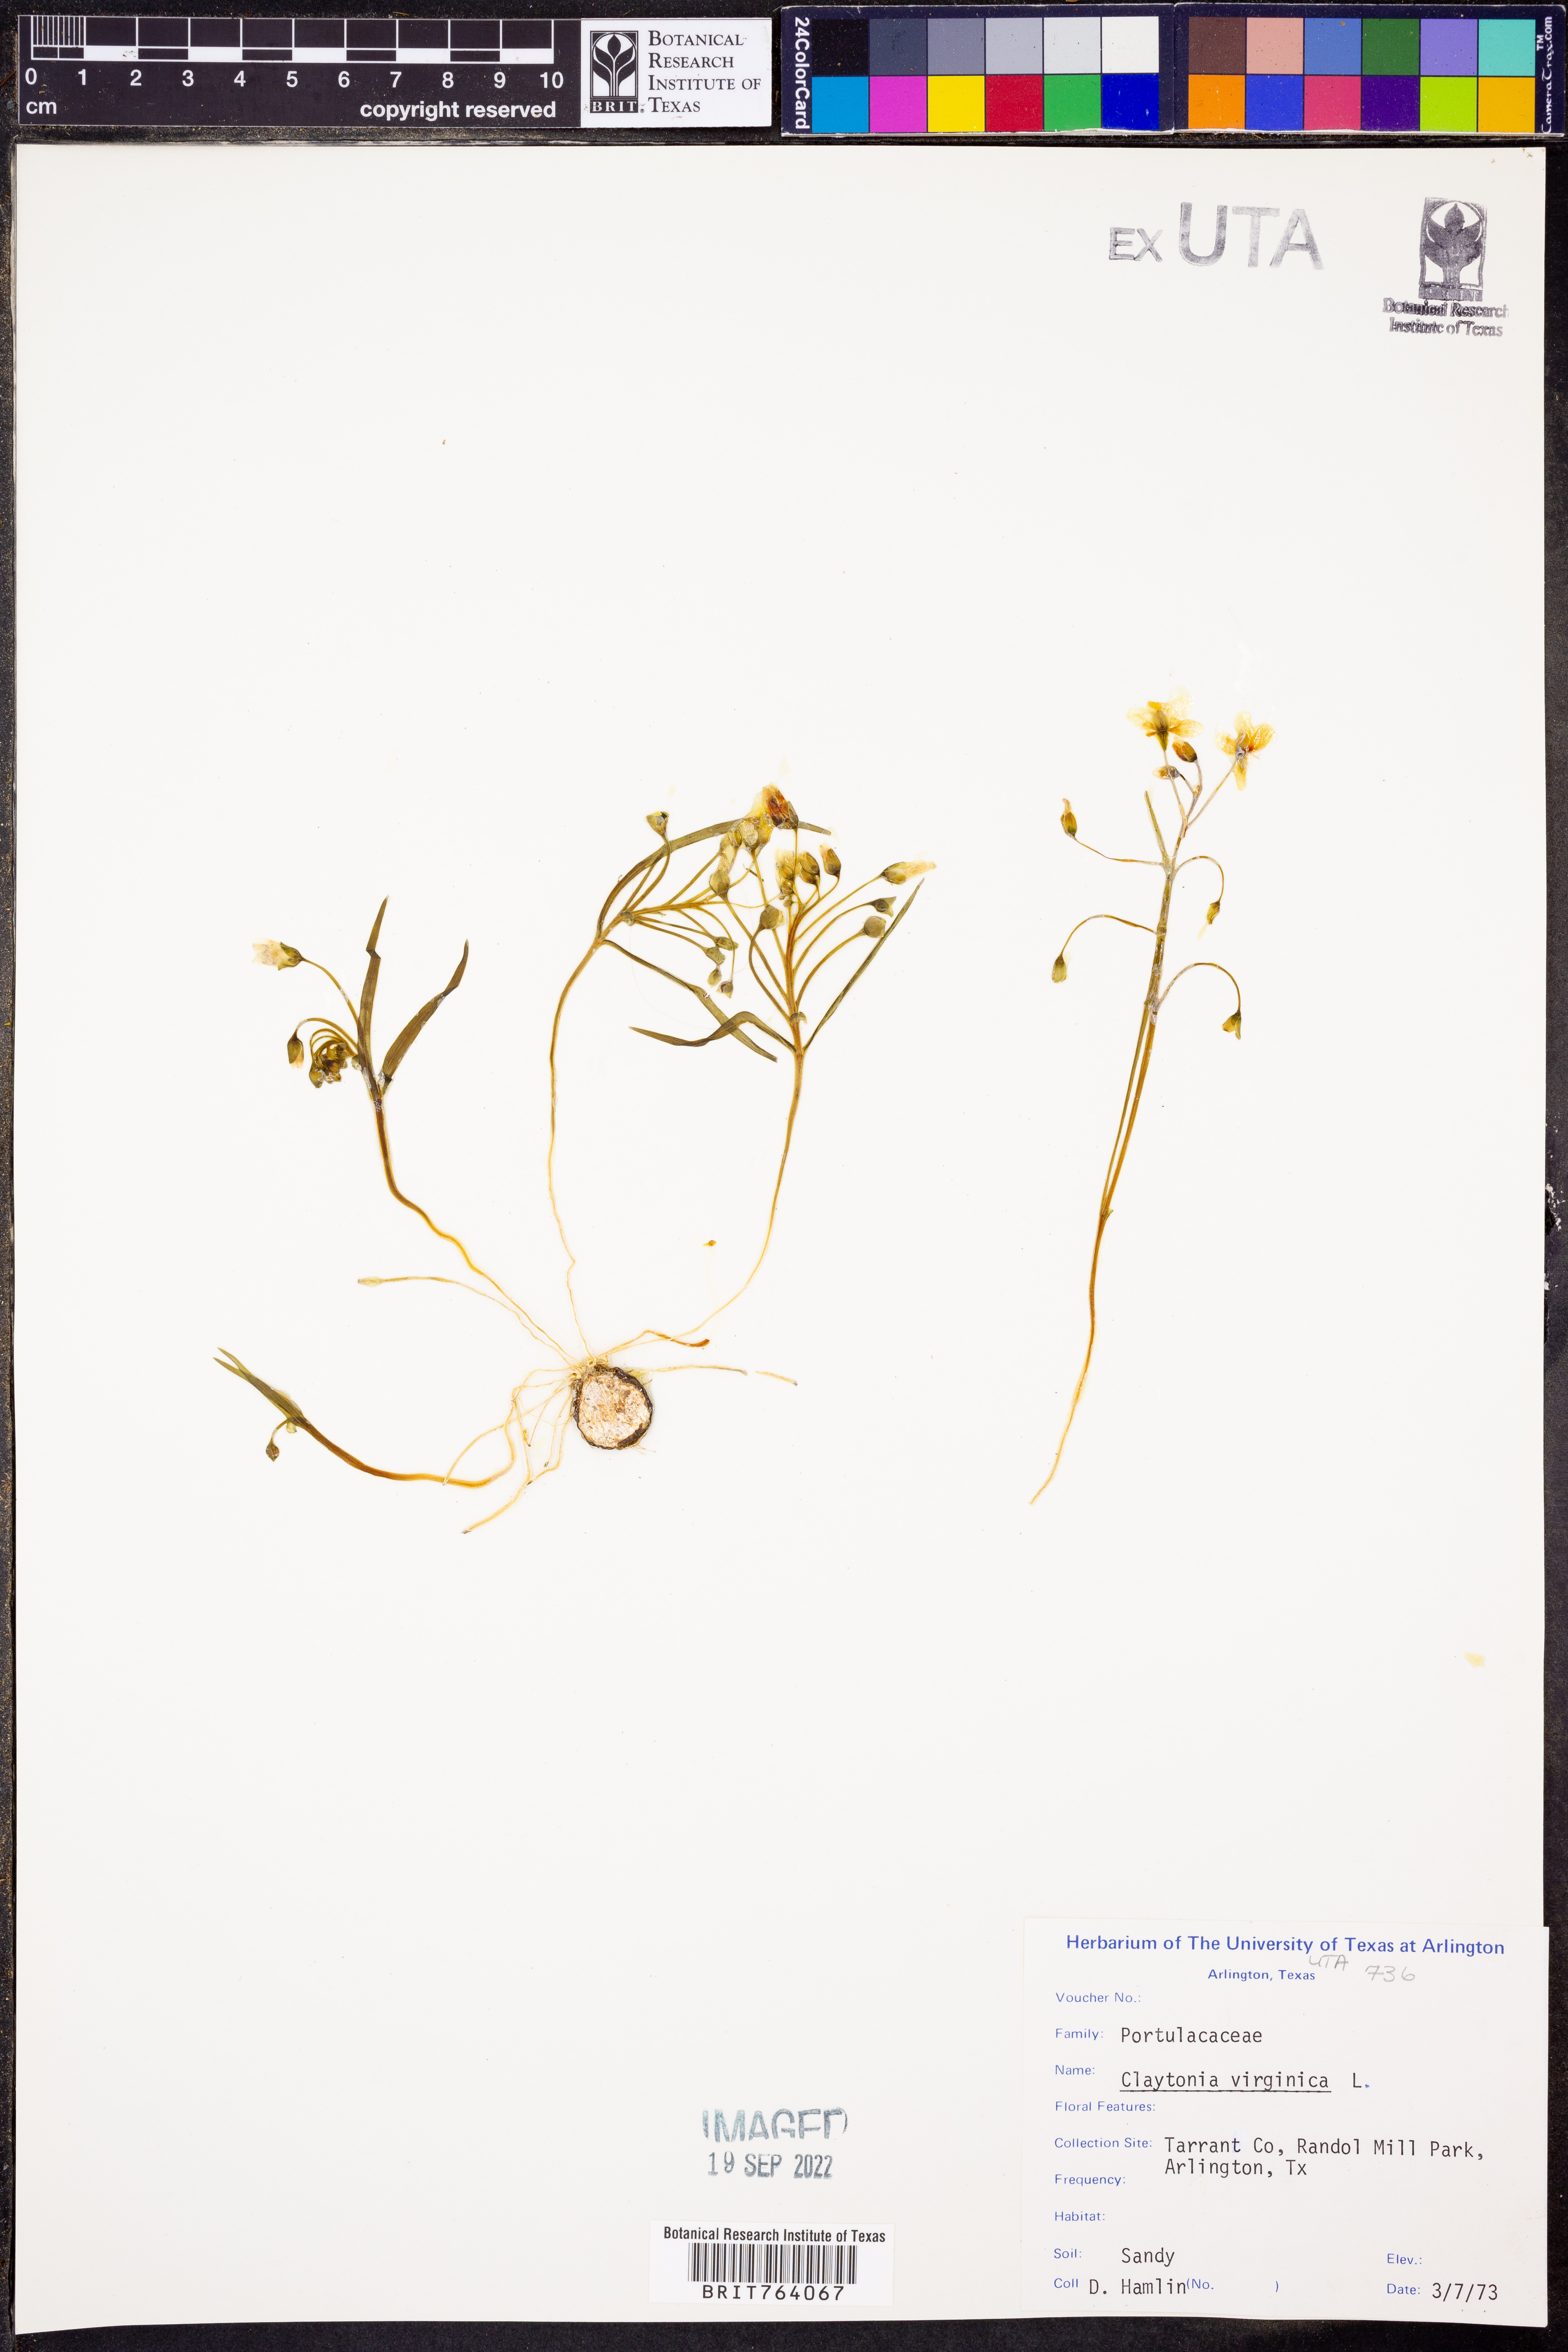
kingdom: Plantae
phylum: Tracheophyta
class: Magnoliopsida
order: Caryophyllales
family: Montiaceae
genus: Claytonia
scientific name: Claytonia virginica
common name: Virginia springbeauty
